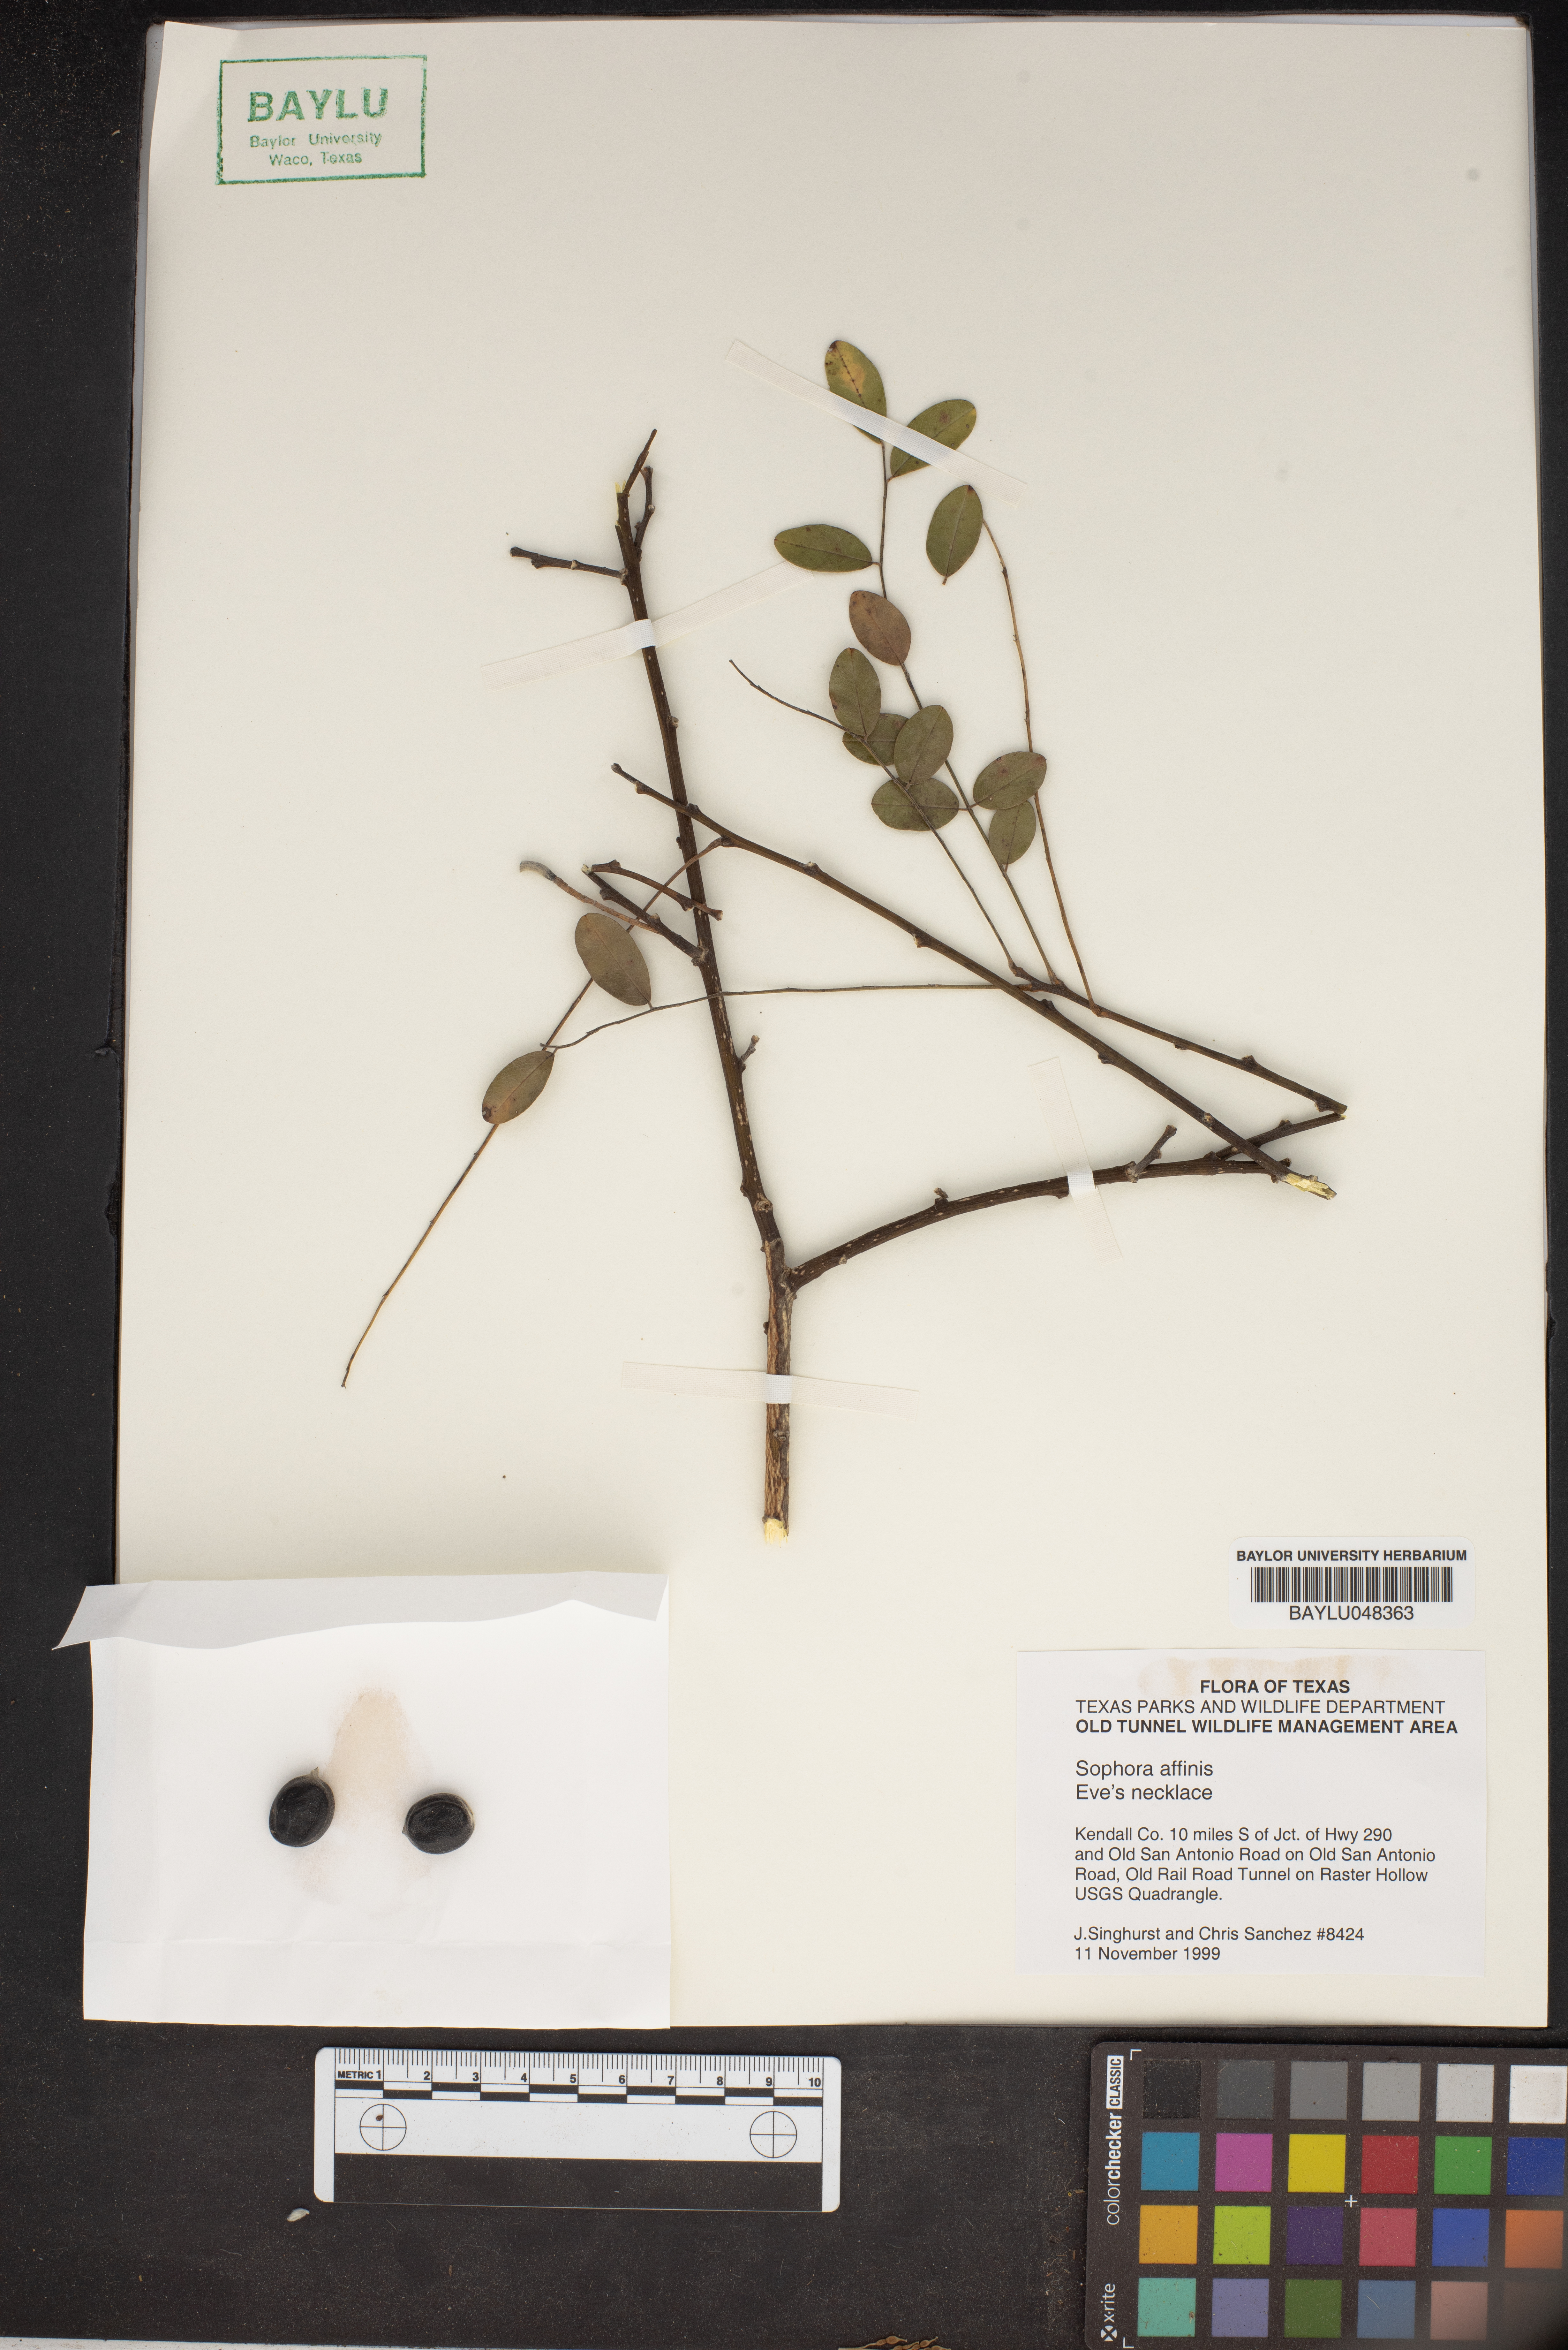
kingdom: Plantae
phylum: Tracheophyta
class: Magnoliopsida
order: Fabales
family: Fabaceae
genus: Styphnolobium
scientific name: Styphnolobium affine
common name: Texas sophora
